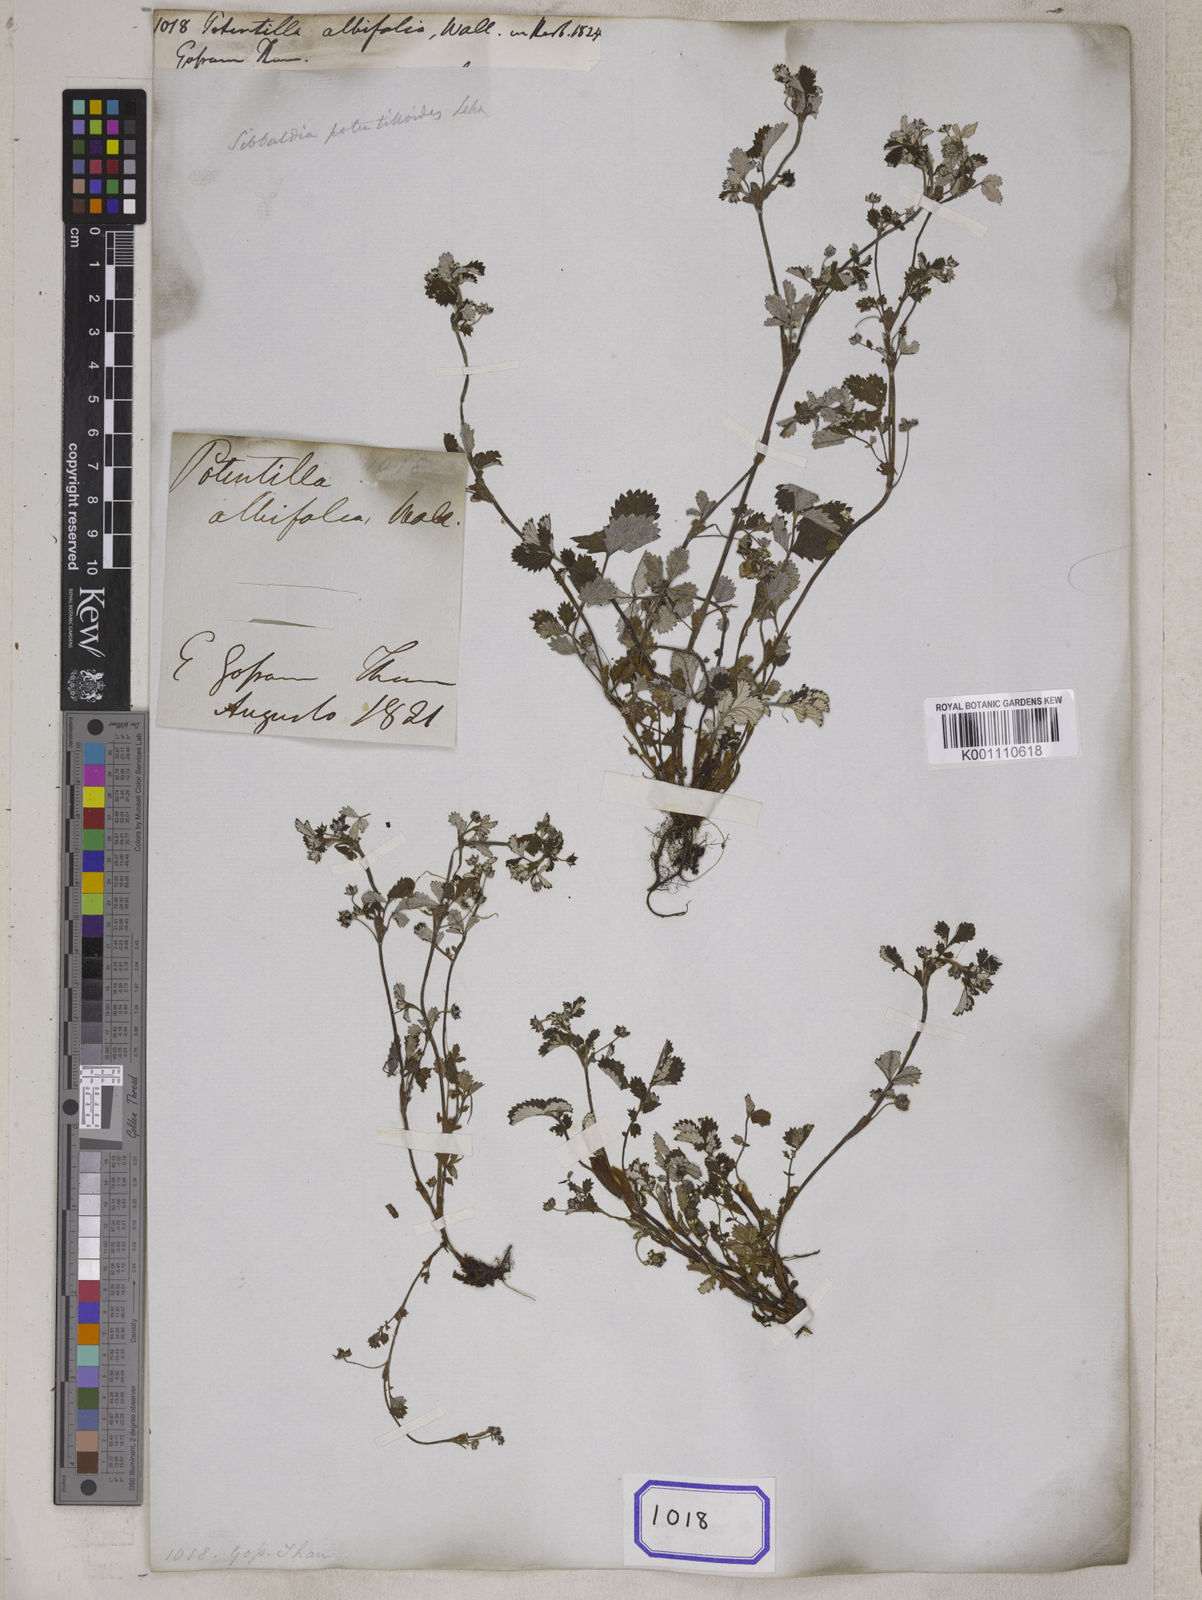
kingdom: Plantae
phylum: Tracheophyta
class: Magnoliopsida
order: Rosales
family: Rosaceae
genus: Potentilla
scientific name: Potentilla
